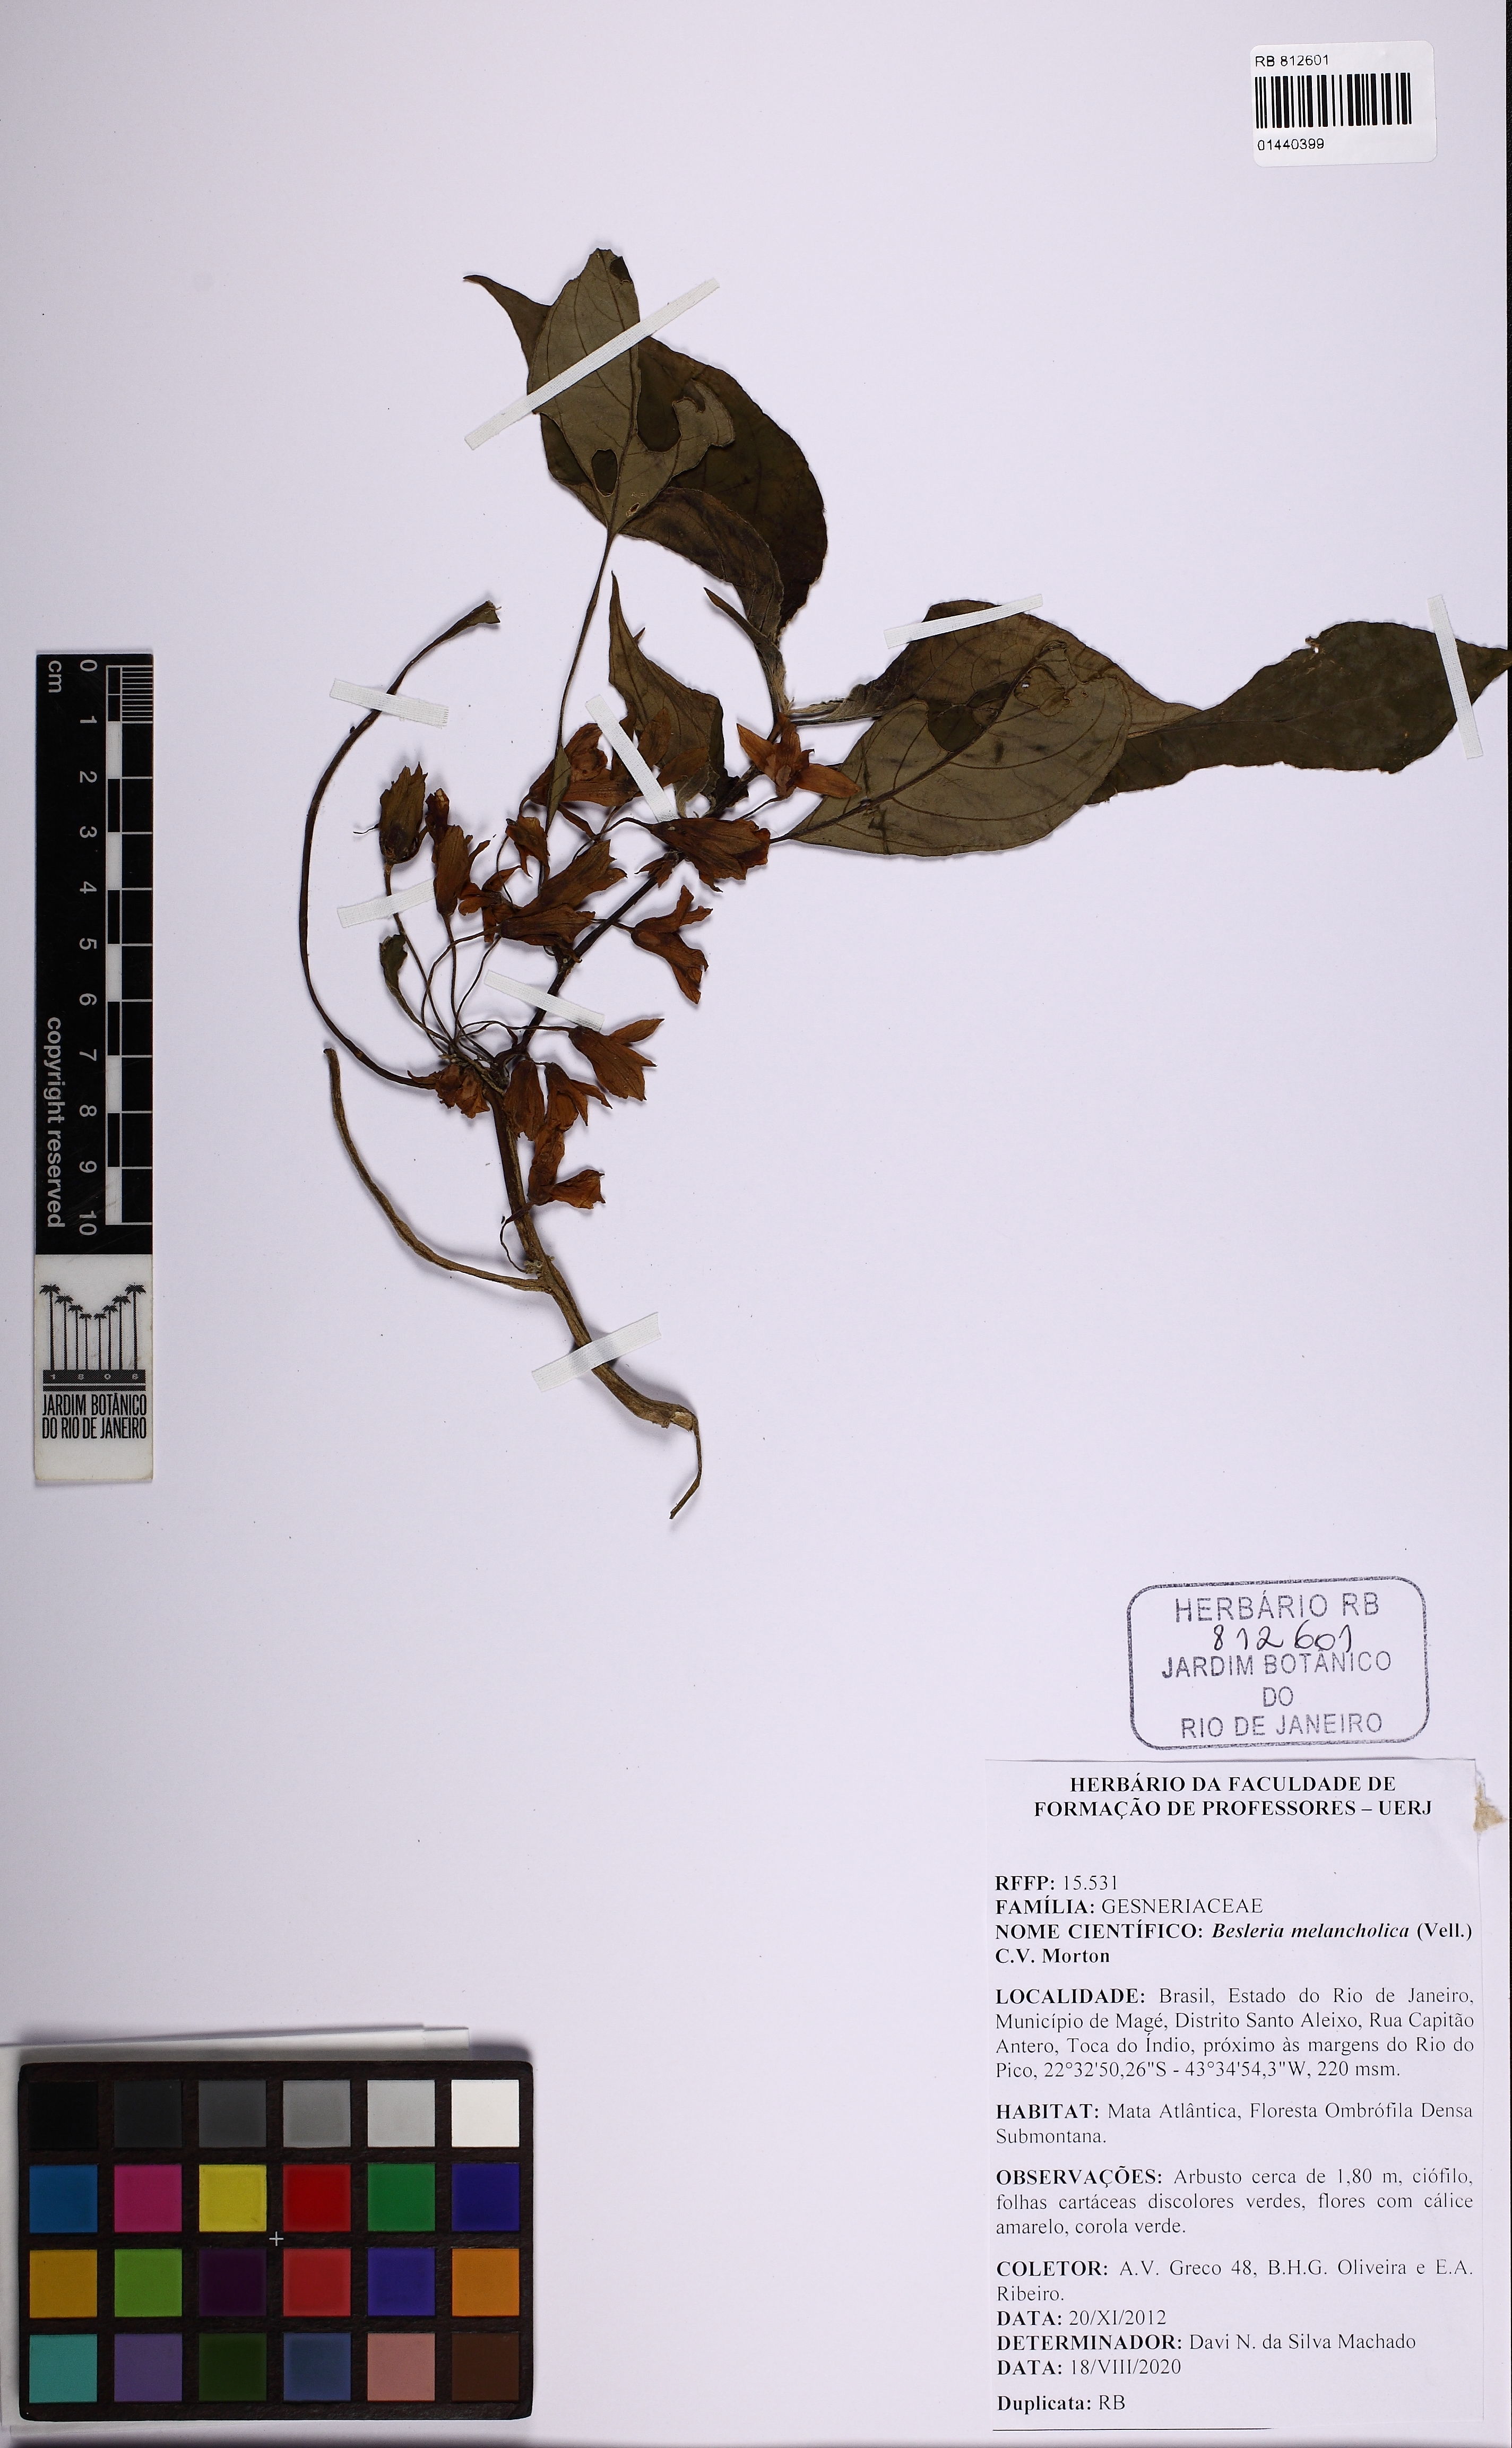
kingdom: Plantae
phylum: Tracheophyta
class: Magnoliopsida
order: Lamiales
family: Gesneriaceae
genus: Besleria
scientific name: Besleria melancholica
